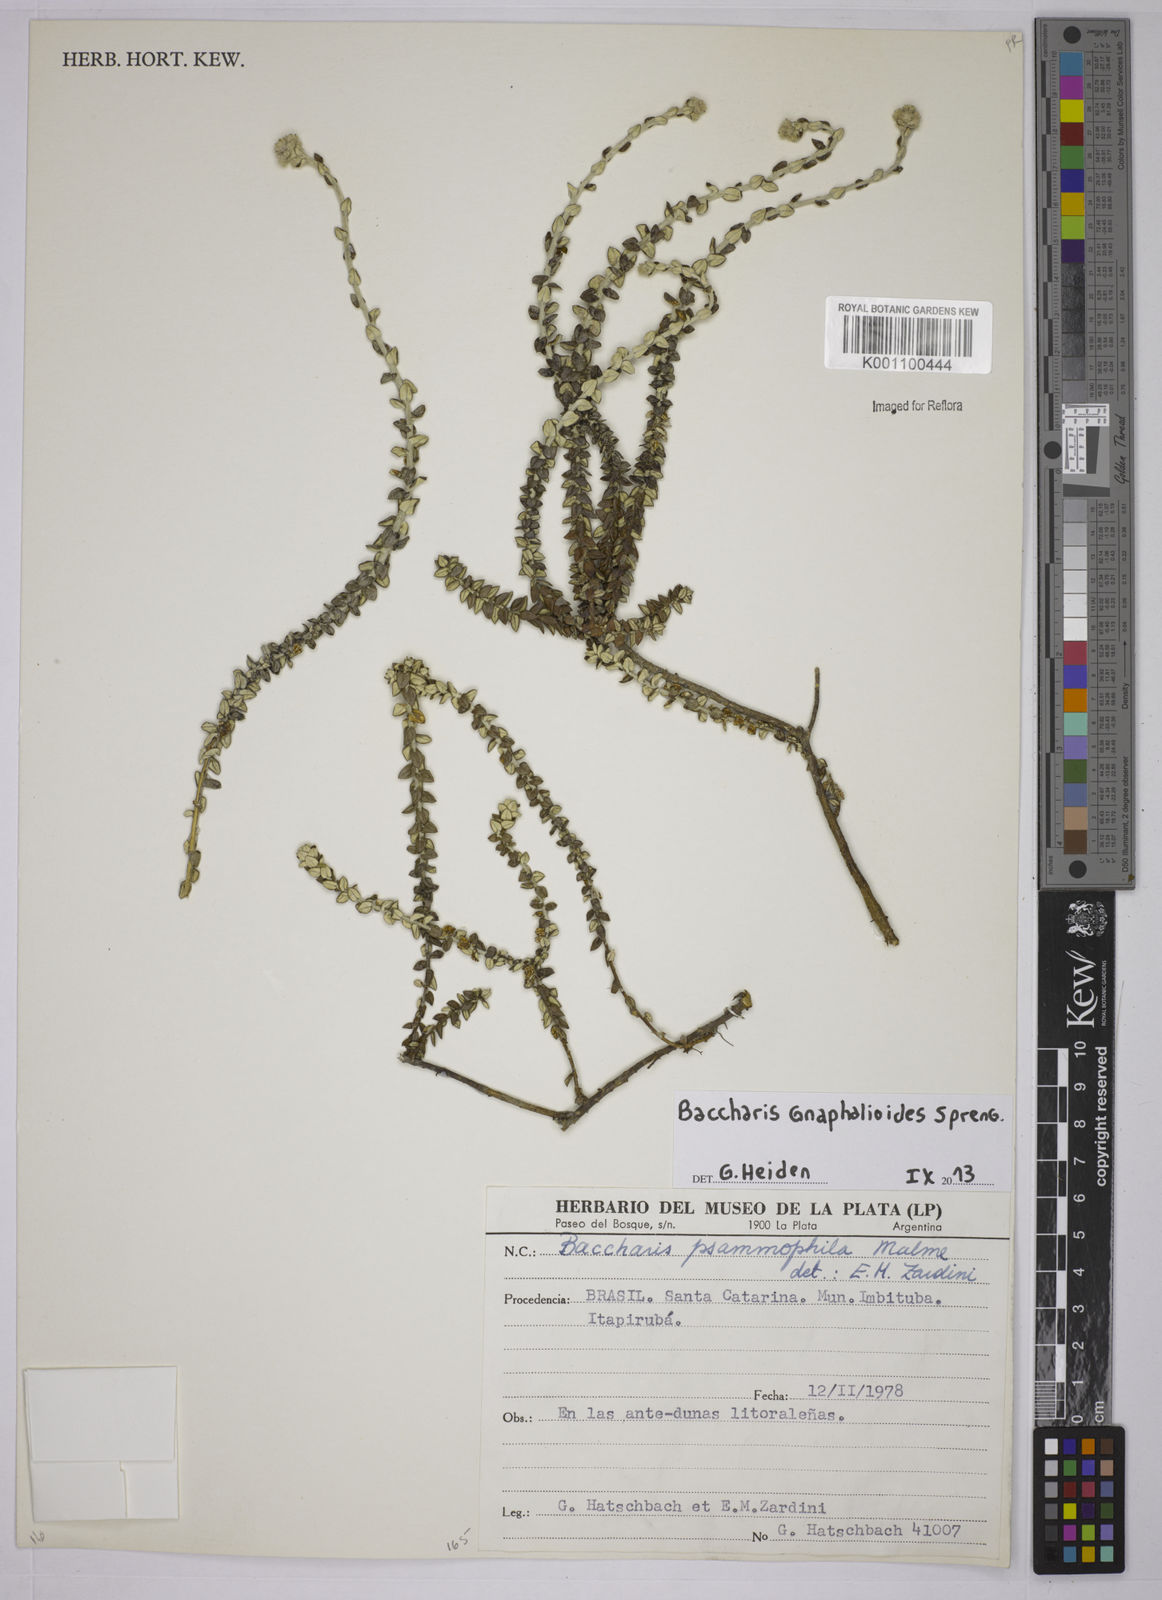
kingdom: Plantae
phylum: Tracheophyta
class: Magnoliopsida
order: Asterales
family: Asteraceae
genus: Lucilia
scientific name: Lucilia acutifolia
